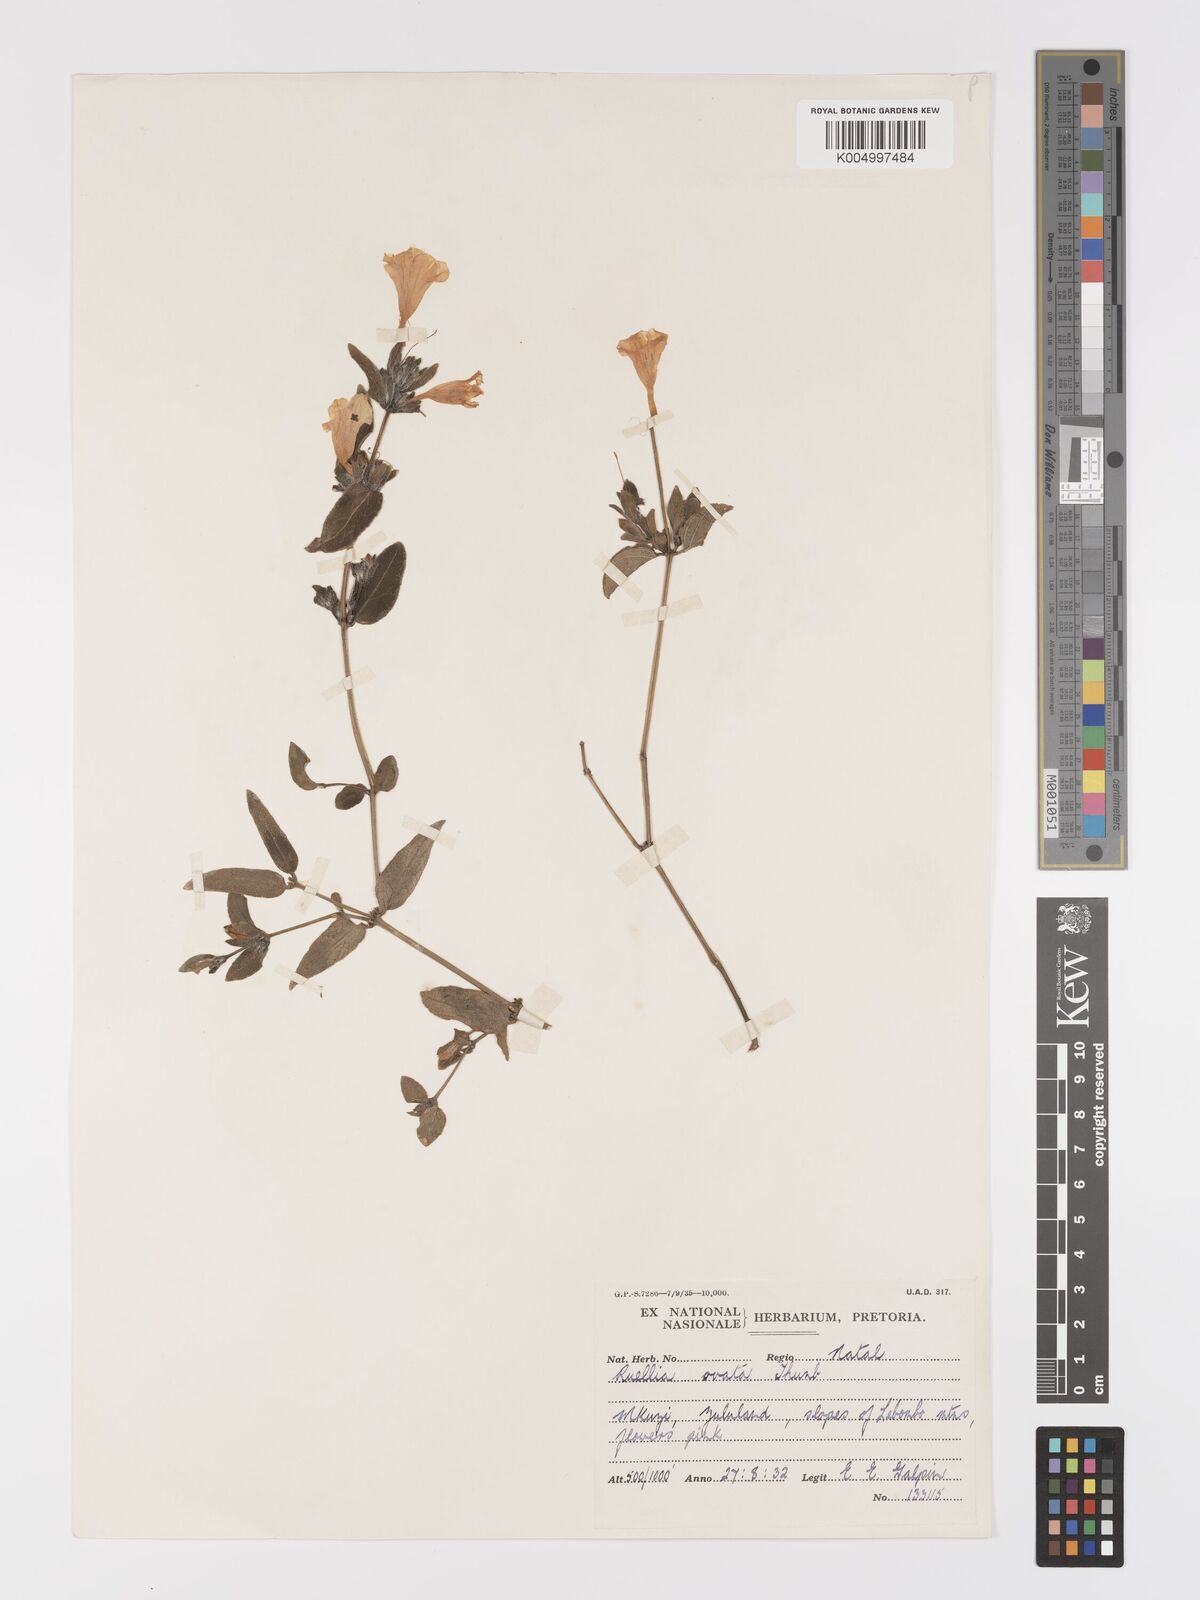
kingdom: Plantae
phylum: Tracheophyta
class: Magnoliopsida
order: Lamiales
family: Acanthaceae
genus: Ruellia
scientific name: Ruellia cordata
